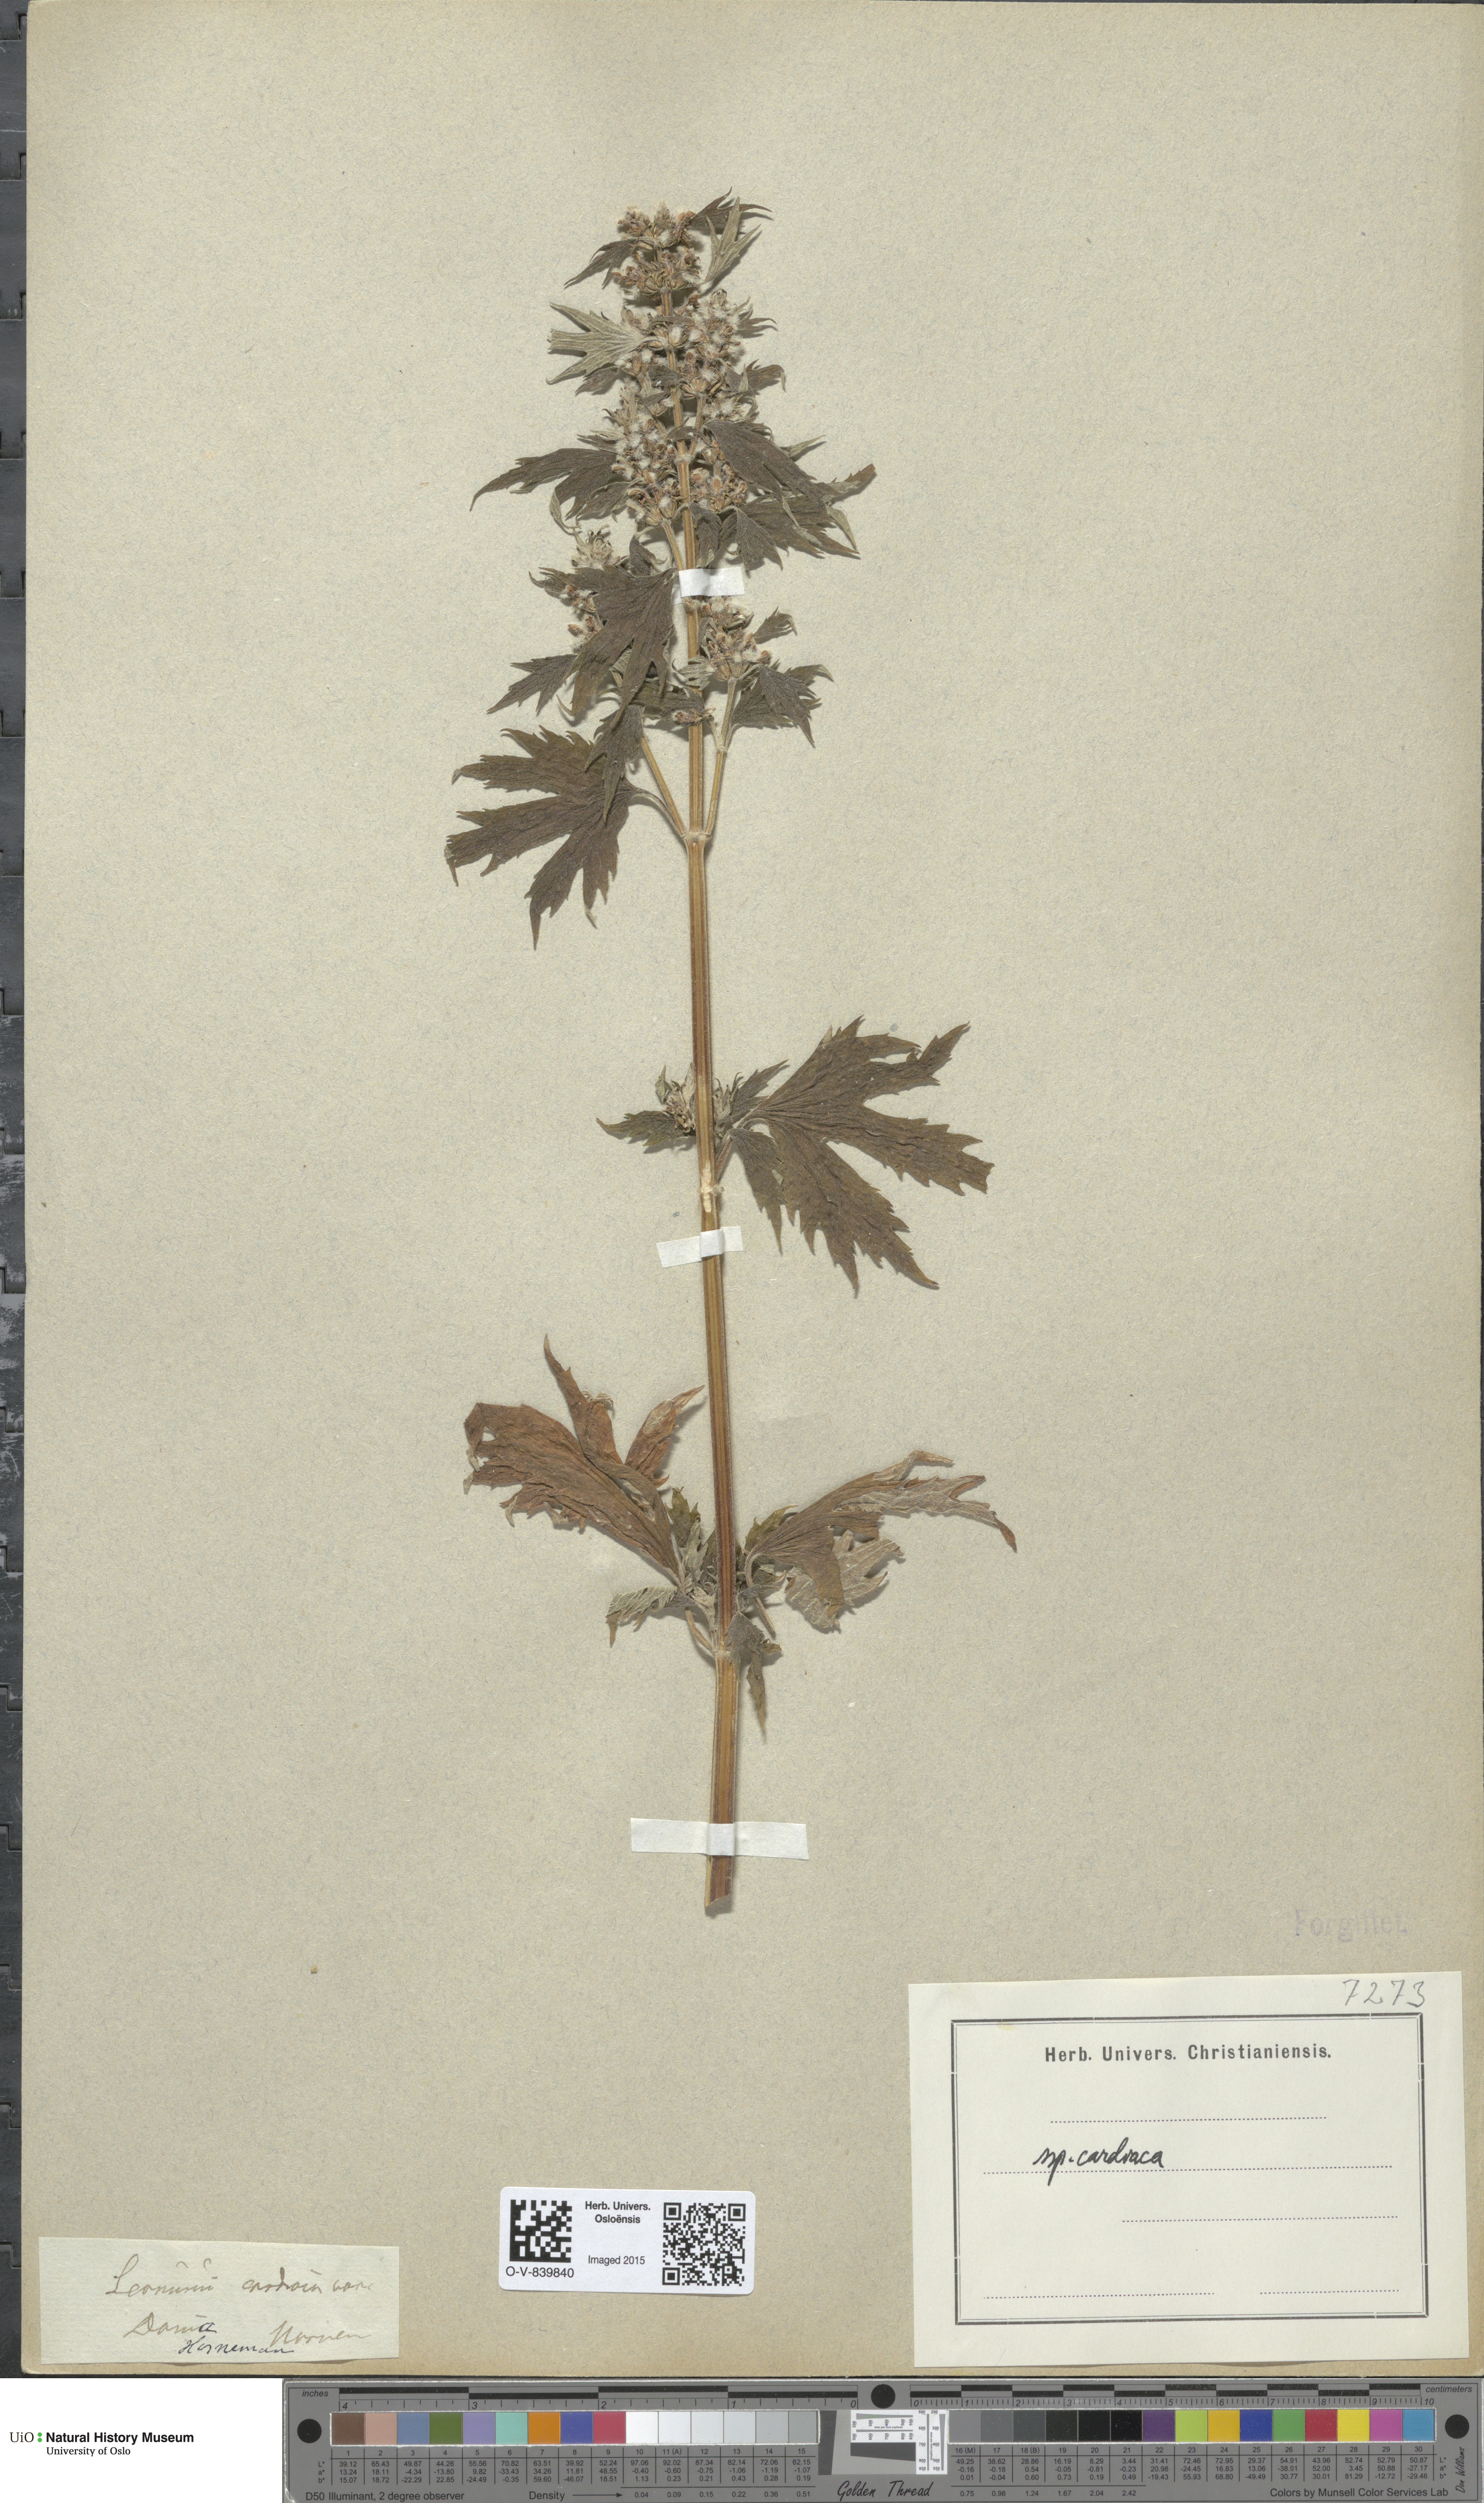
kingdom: Plantae
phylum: Tracheophyta
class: Magnoliopsida
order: Lamiales
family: Lamiaceae
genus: Leonurus
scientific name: Leonurus cardiaca
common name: Motherwort
